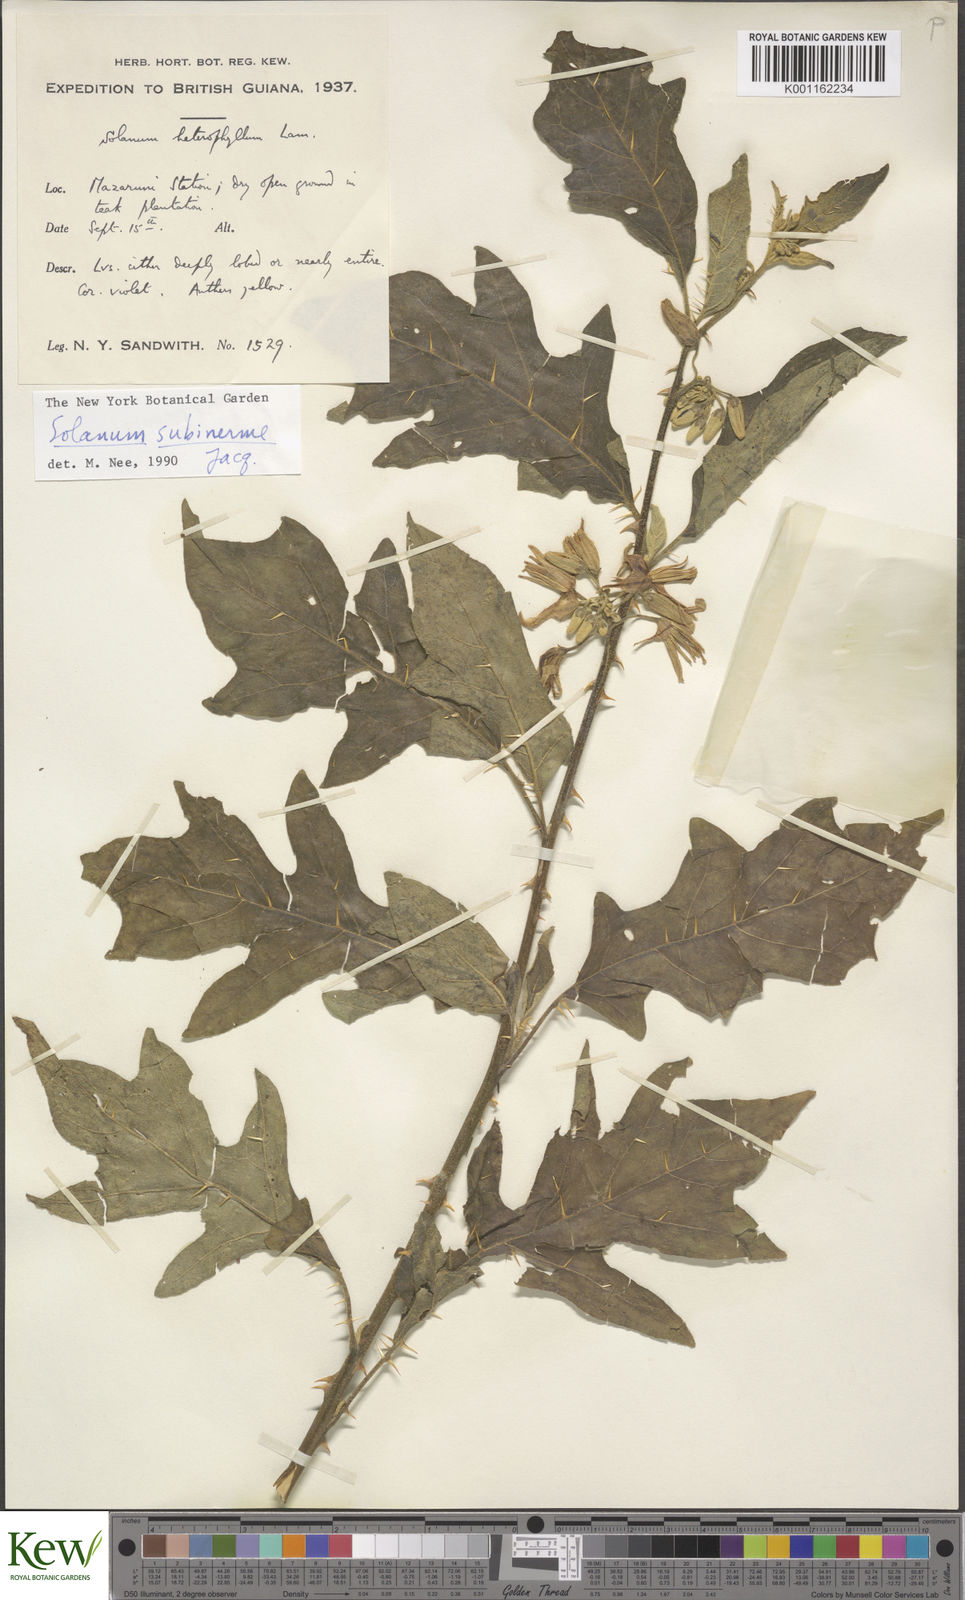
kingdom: Plantae
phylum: Tracheophyta
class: Magnoliopsida
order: Solanales
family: Solanaceae
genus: Solanum
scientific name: Solanum subinerme
